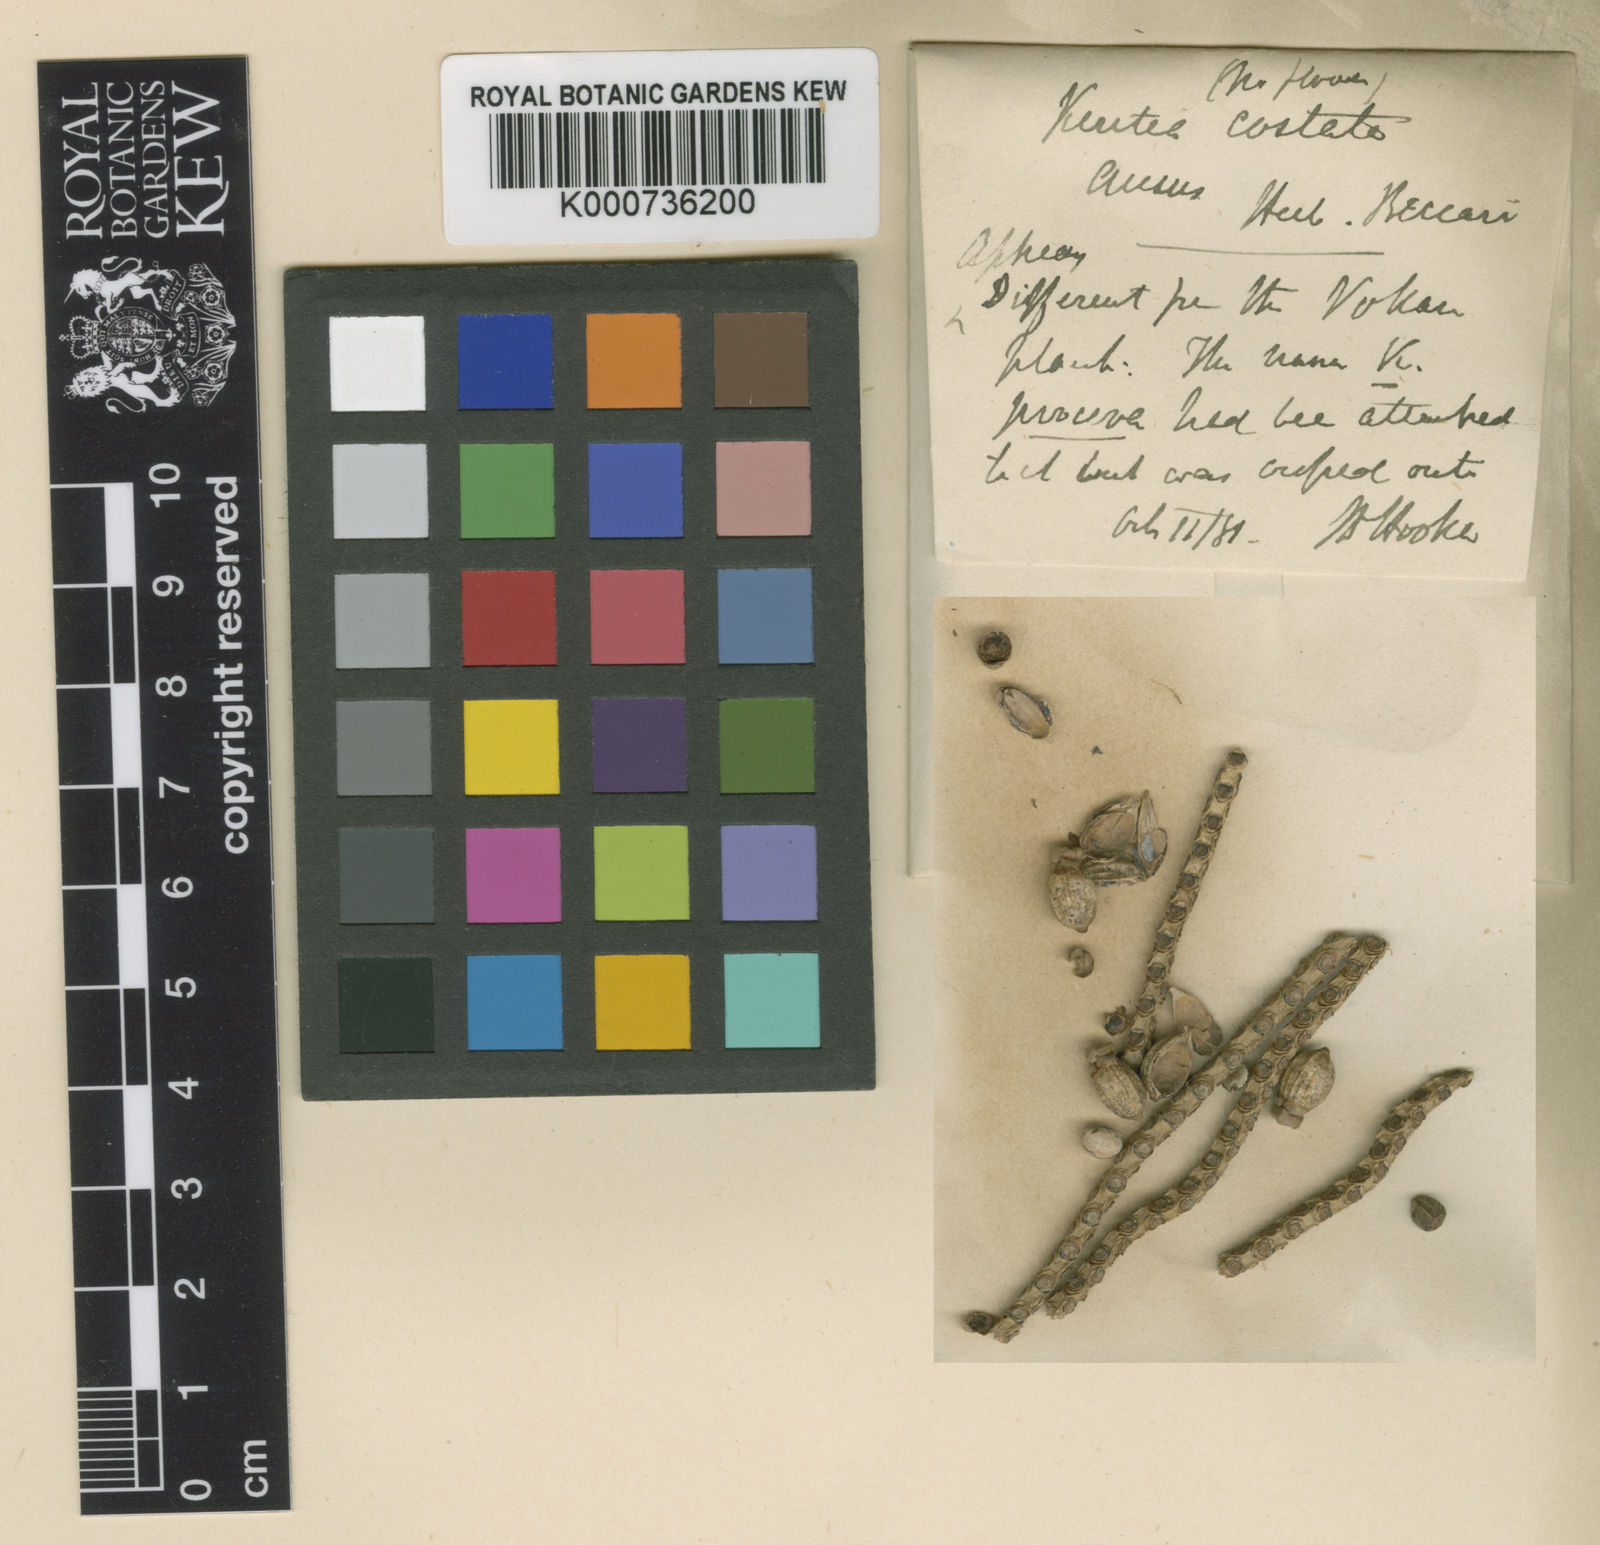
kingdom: Plantae
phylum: Tracheophyta
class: Liliopsida
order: Arecales
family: Arecaceae
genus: Hydriastele
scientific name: Hydriastele costata
